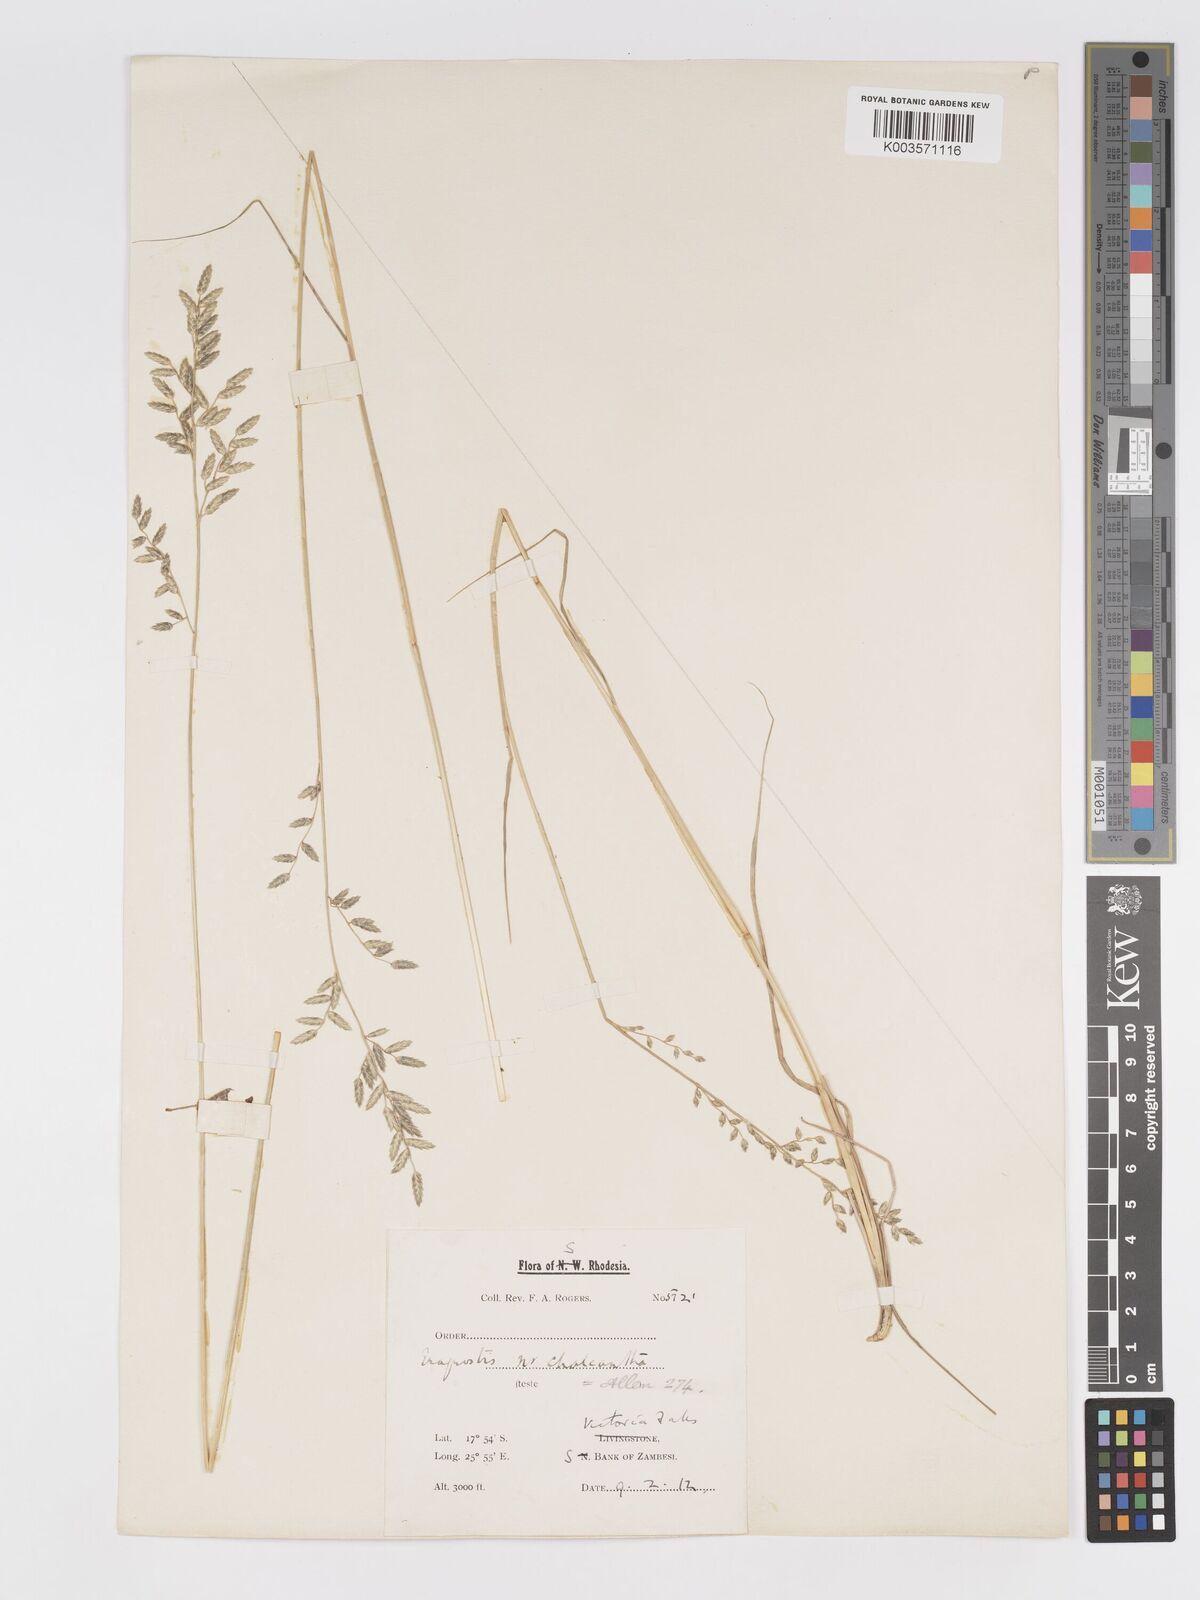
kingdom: Plantae
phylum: Tracheophyta
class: Liliopsida
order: Poales
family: Poaceae
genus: Eragrostis
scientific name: Eragrostis nindensis
